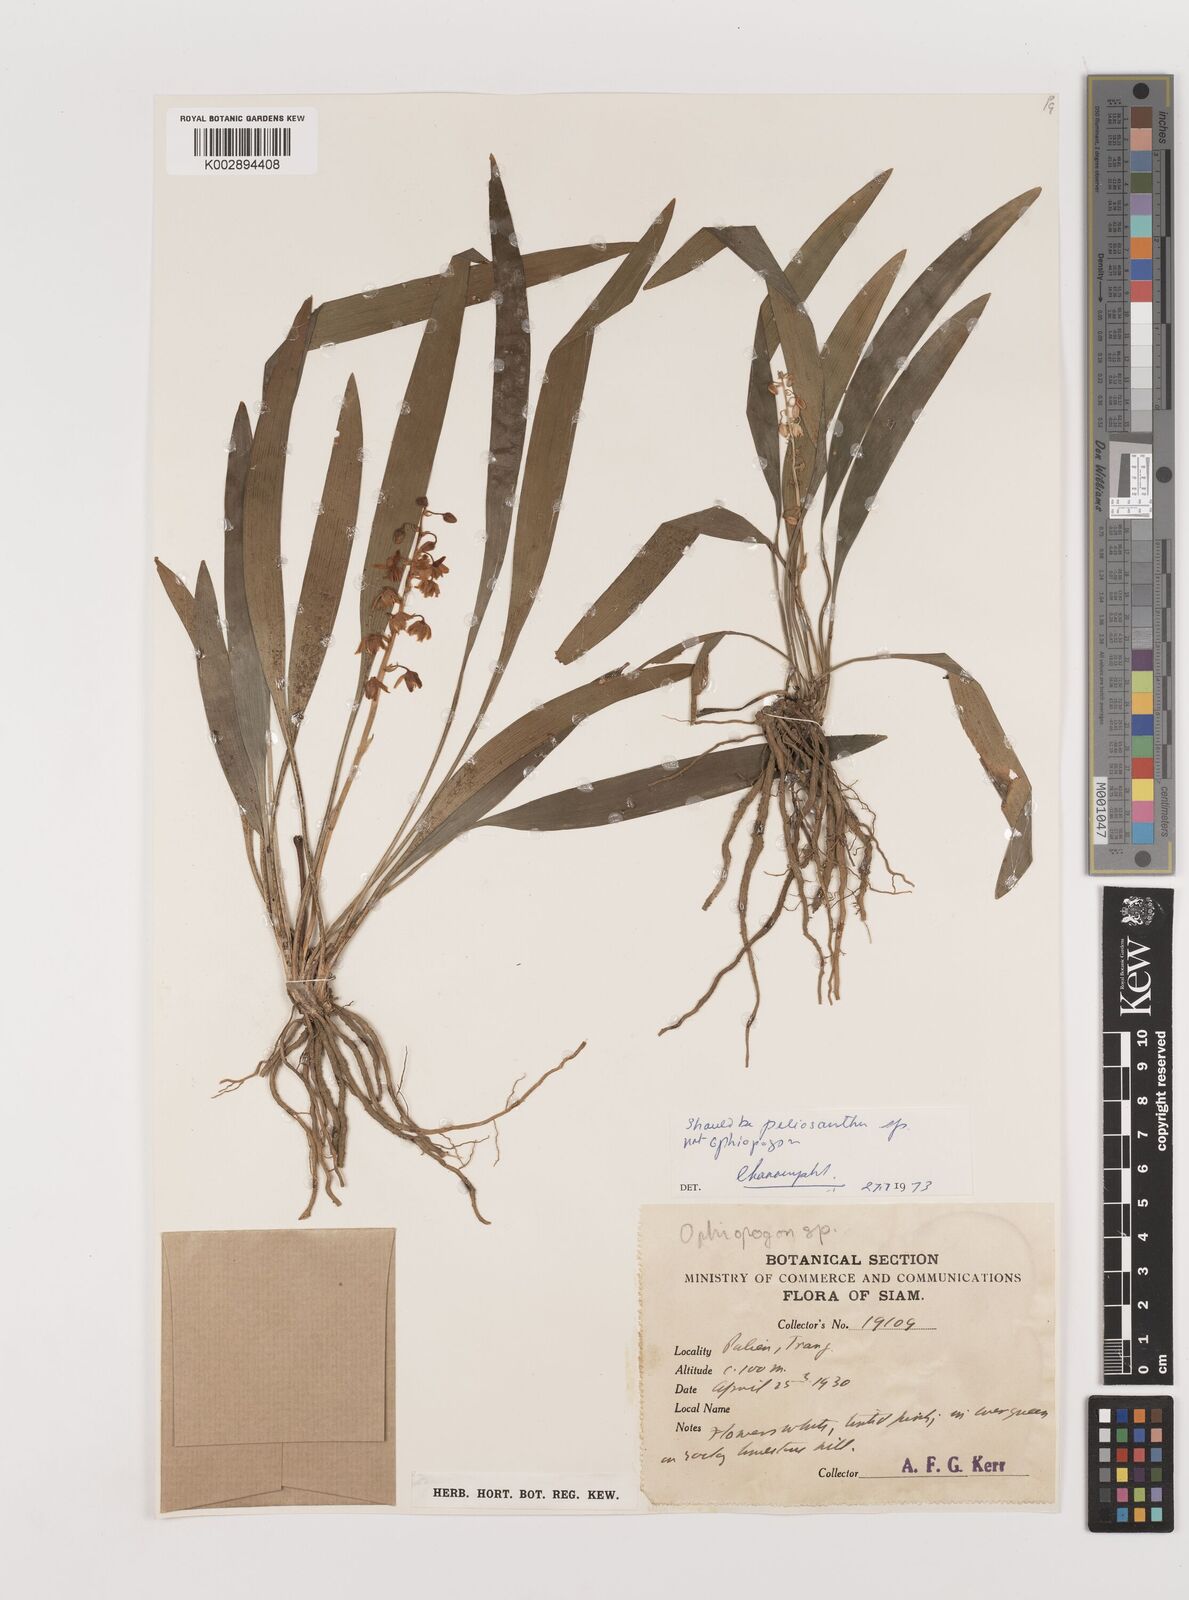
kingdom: Plantae
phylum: Tracheophyta
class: Liliopsida
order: Asparagales
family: Asparagaceae
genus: Peliosanthes
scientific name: Peliosanthes
